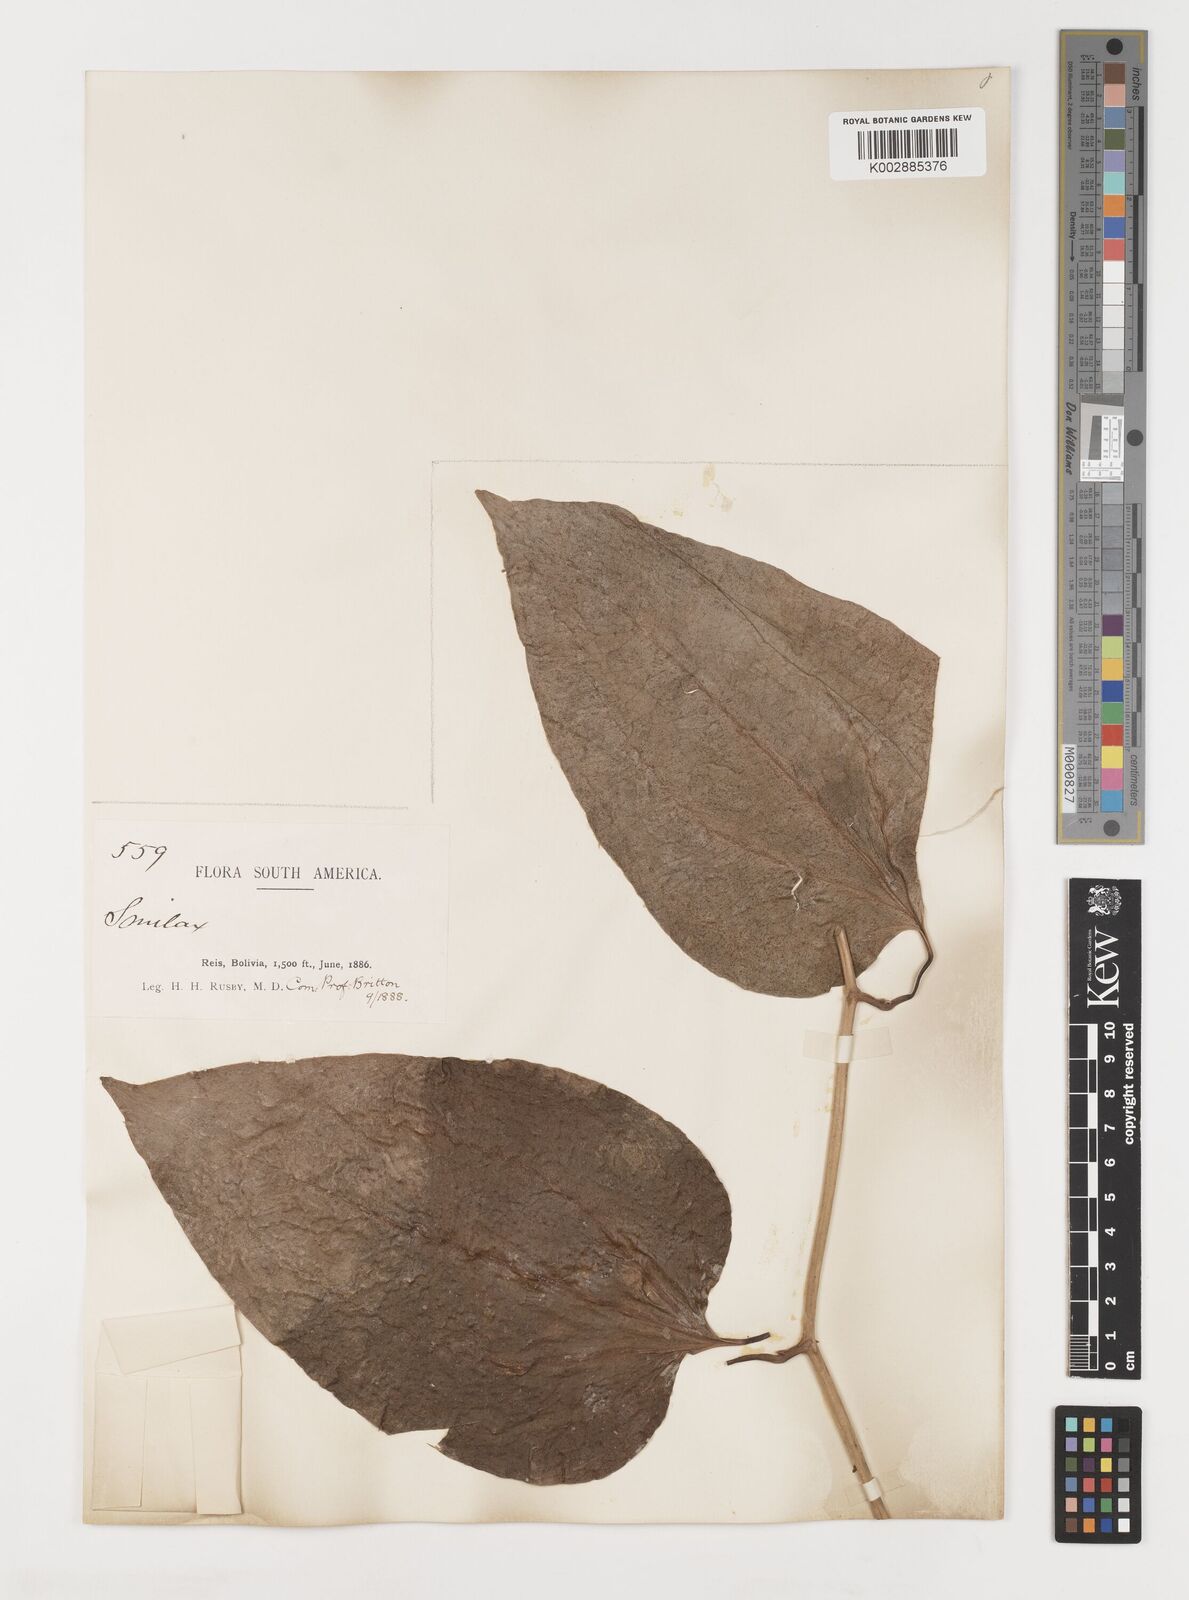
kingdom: Plantae
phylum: Tracheophyta
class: Liliopsida
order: Liliales
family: Smilacaceae
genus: Smilax
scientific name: Smilax
